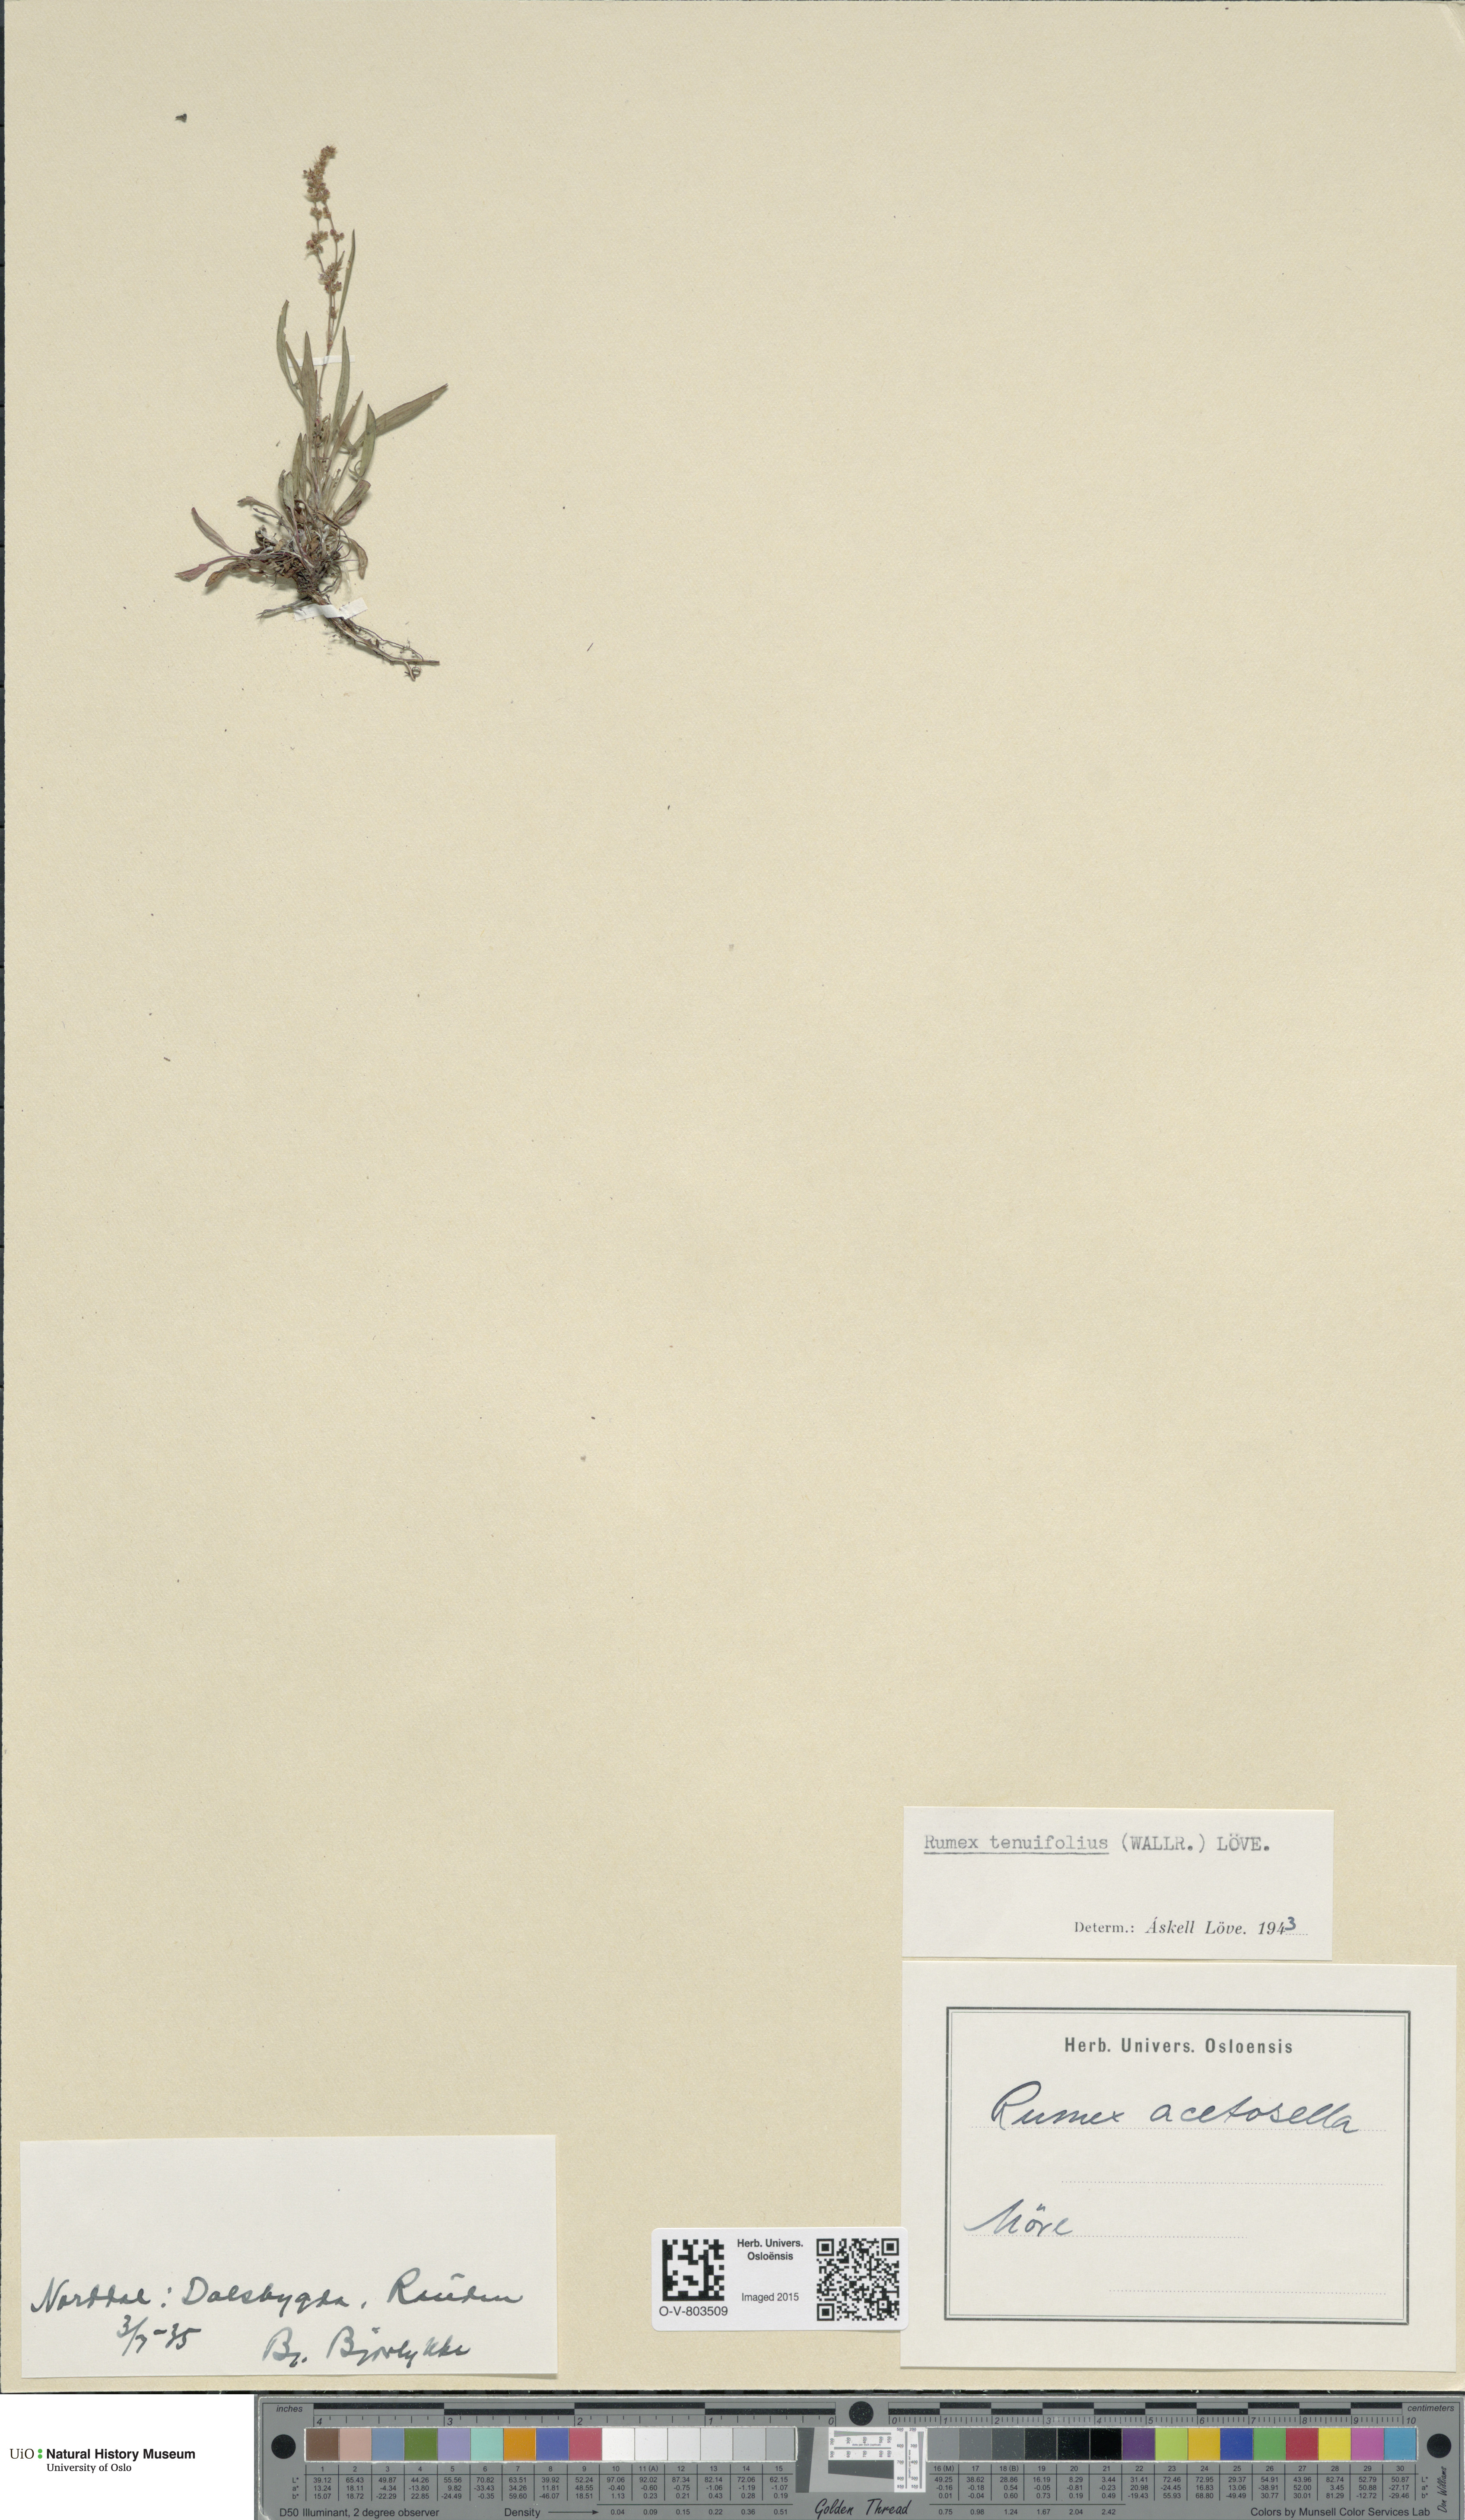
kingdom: Plantae
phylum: Tracheophyta
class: Magnoliopsida
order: Caryophyllales
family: Polygonaceae
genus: Rumex
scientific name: Rumex acetosella
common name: Common sheep sorrel
